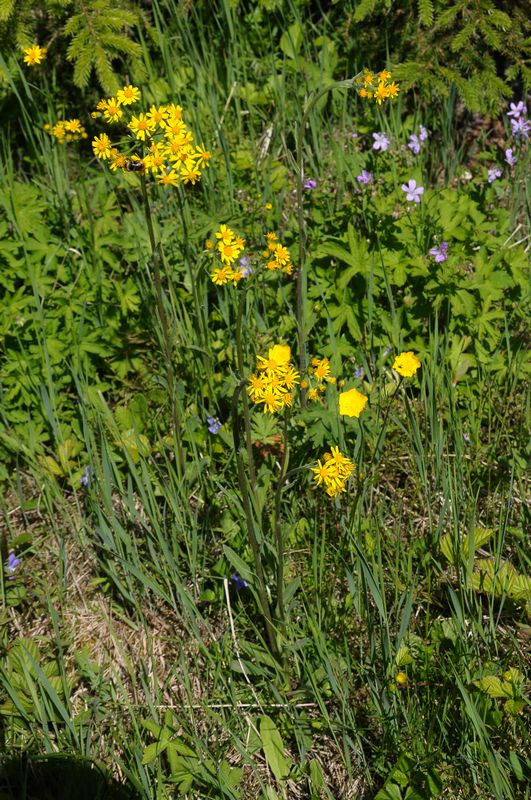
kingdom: Plantae
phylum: Tracheophyta
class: Magnoliopsida
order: Asterales
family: Asteraceae
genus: Tephroseris
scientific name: Tephroseris integrifolia
